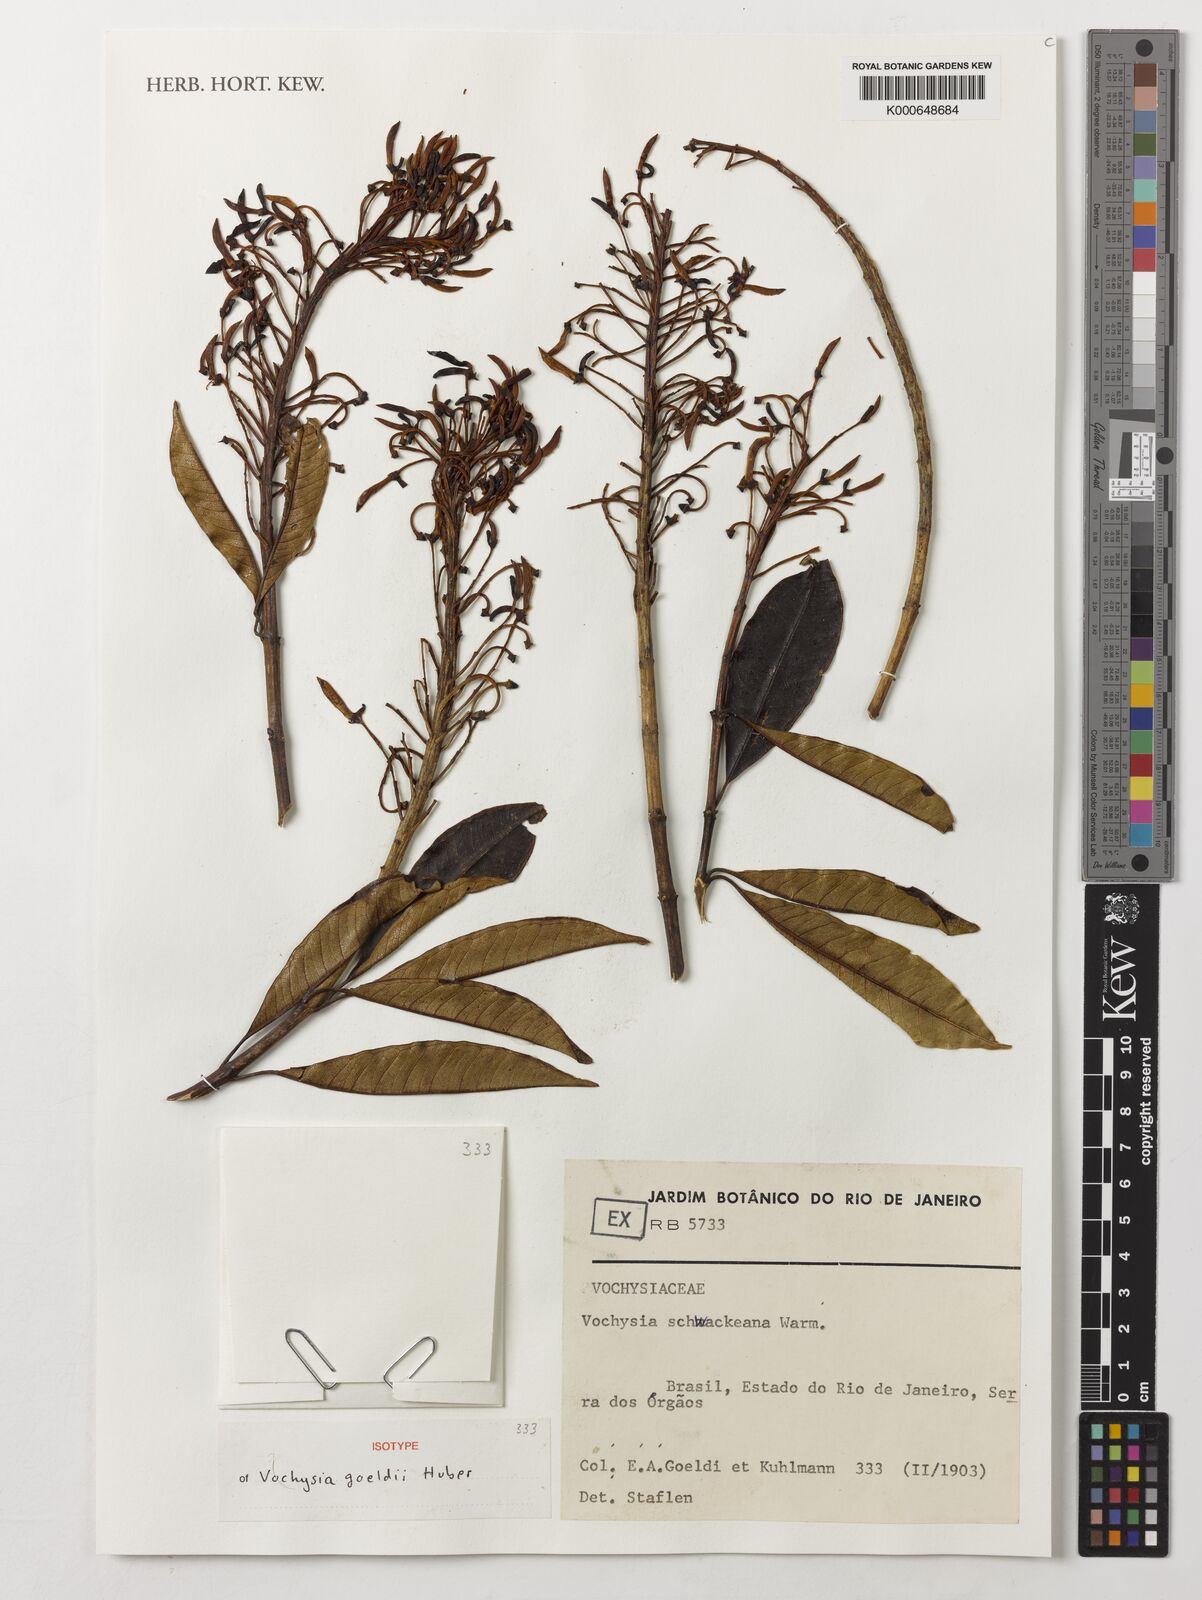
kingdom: Plantae
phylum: Tracheophyta
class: Magnoliopsida
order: Myrtales
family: Vochysiaceae
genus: Vochysia
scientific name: Vochysia schwackeana
